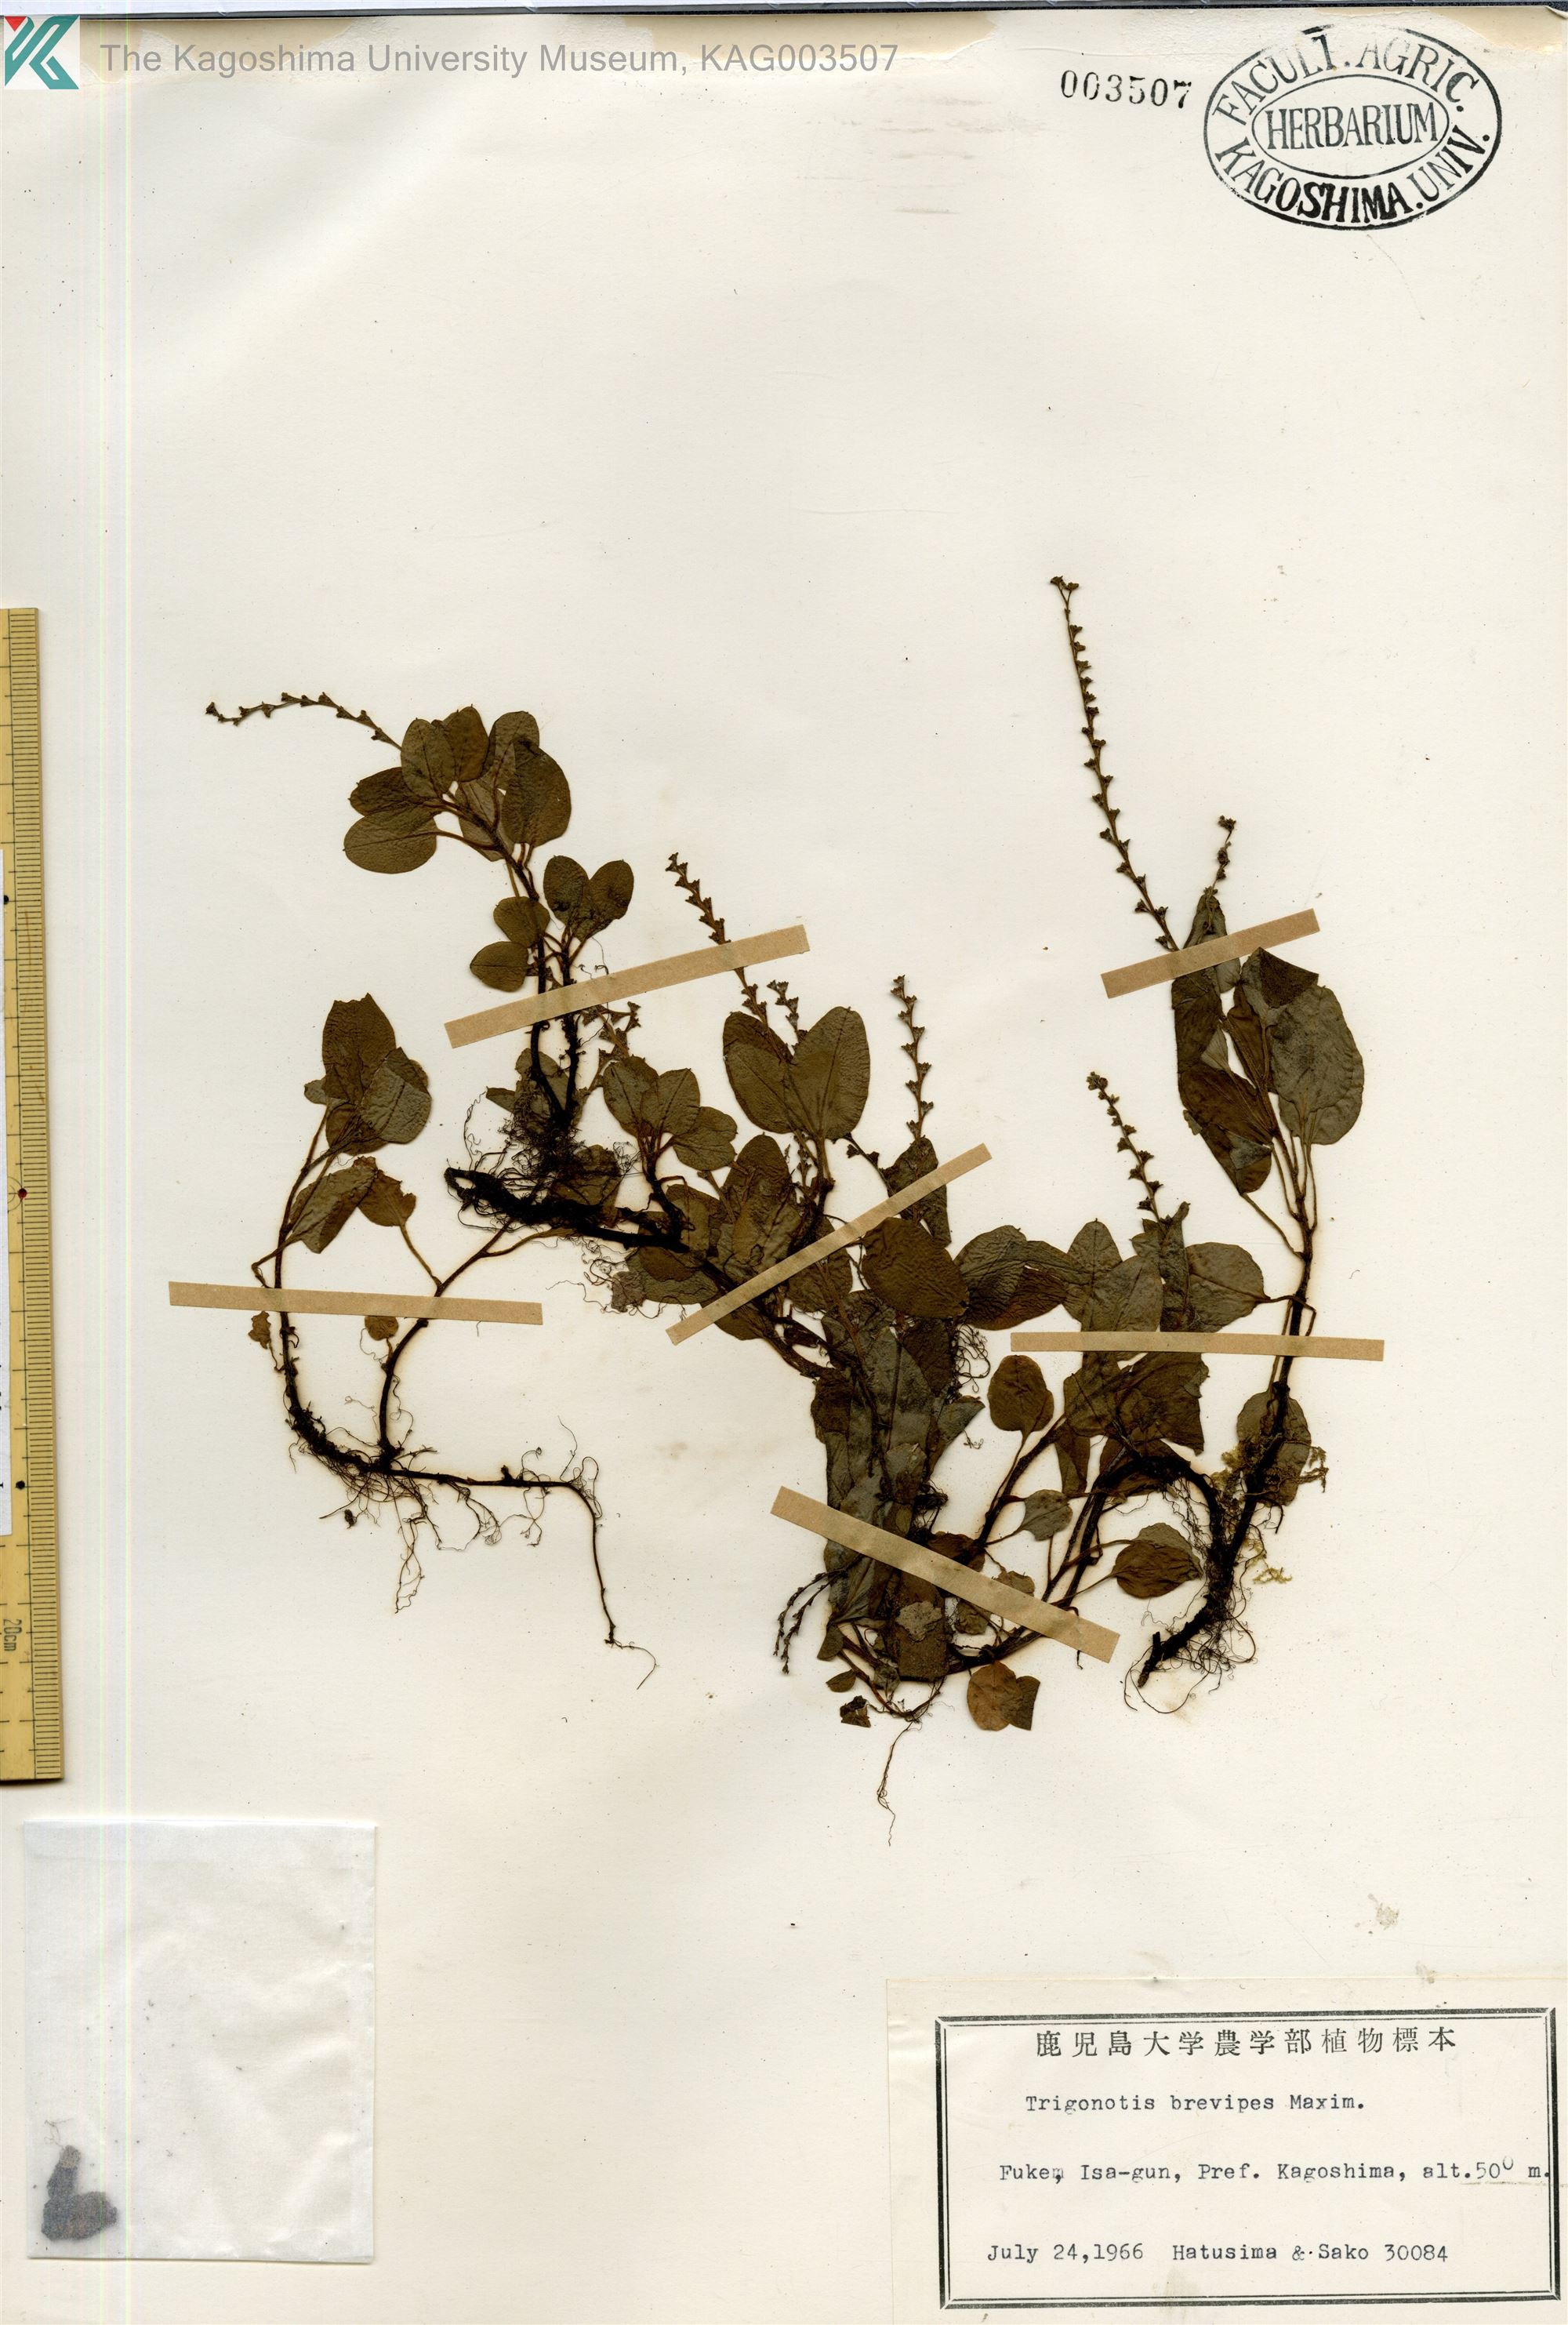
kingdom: Plantae
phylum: Tracheophyta
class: Magnoliopsida
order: Boraginales
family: Boraginaceae
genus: Trigonotis
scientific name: Trigonotis brevipes
